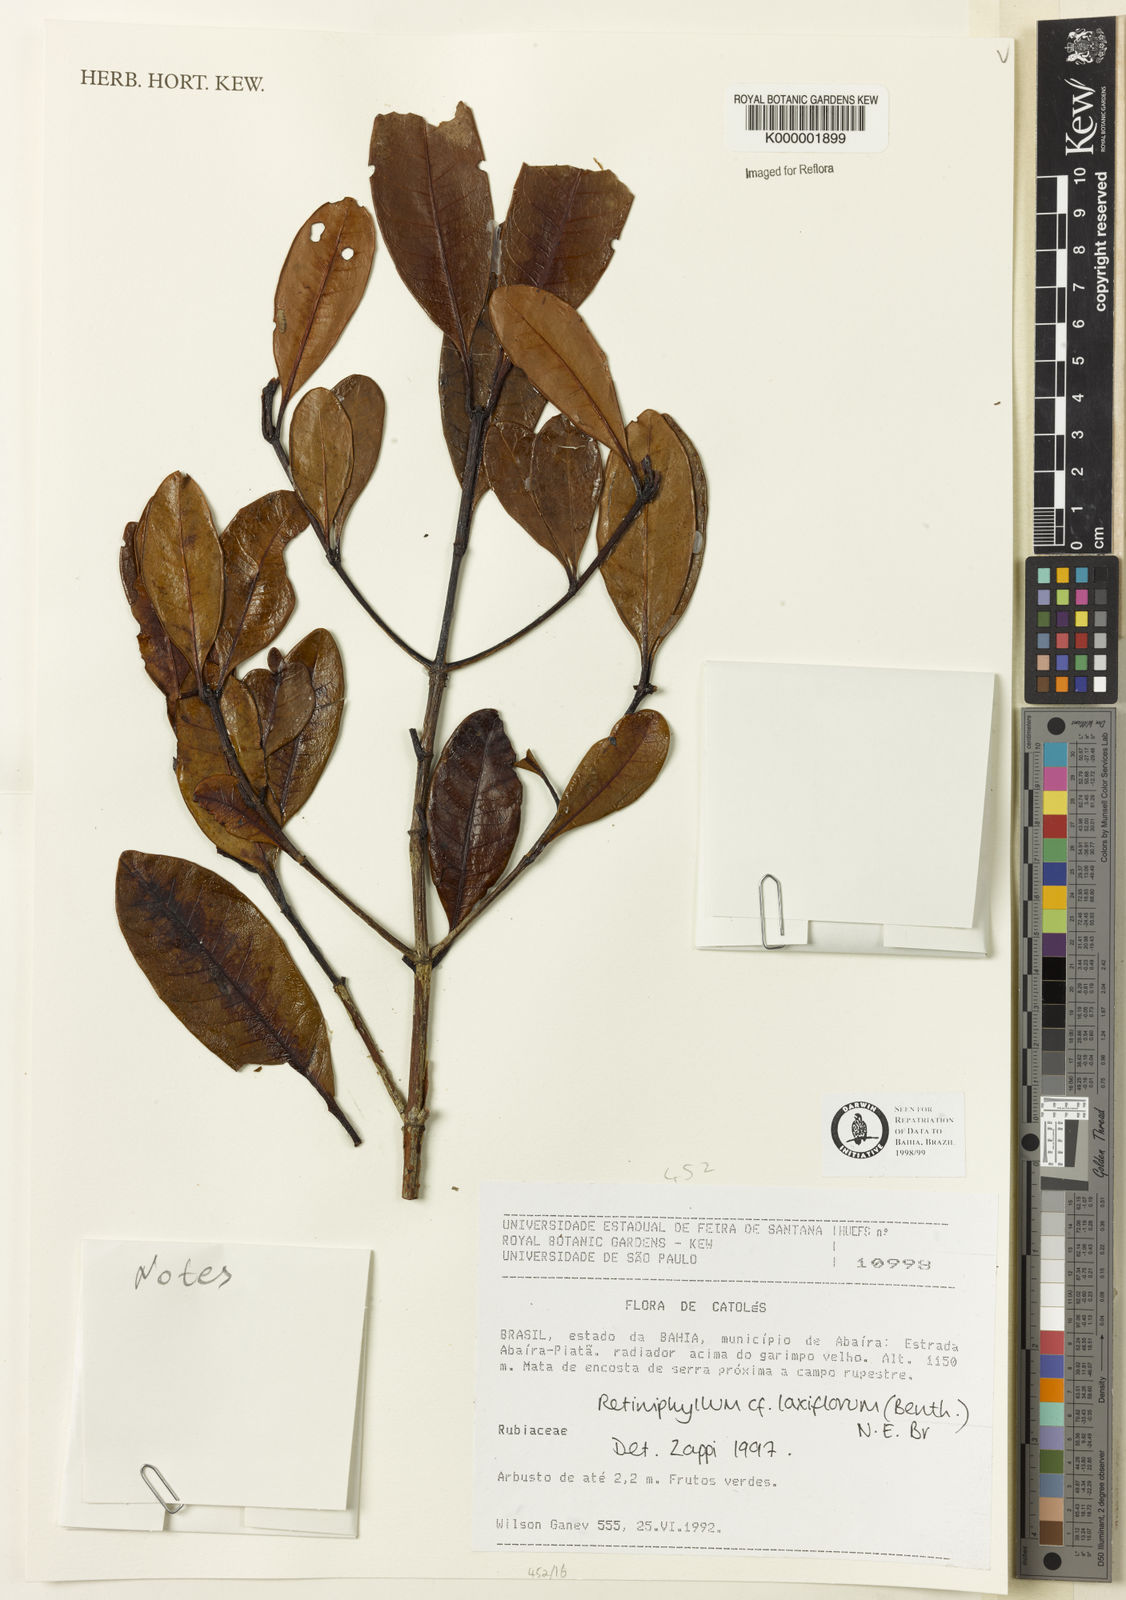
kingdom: Plantae
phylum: Tracheophyta
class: Magnoliopsida
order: Gentianales
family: Rubiaceae
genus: Retiniphyllum
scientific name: Retiniphyllum laxiflorum
